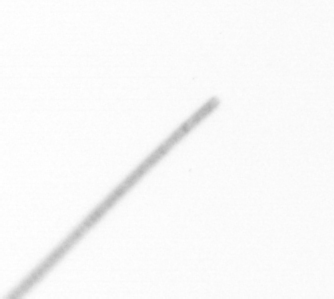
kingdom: Chromista
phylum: Ochrophyta
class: Bacillariophyceae
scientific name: Bacillariophyceae
